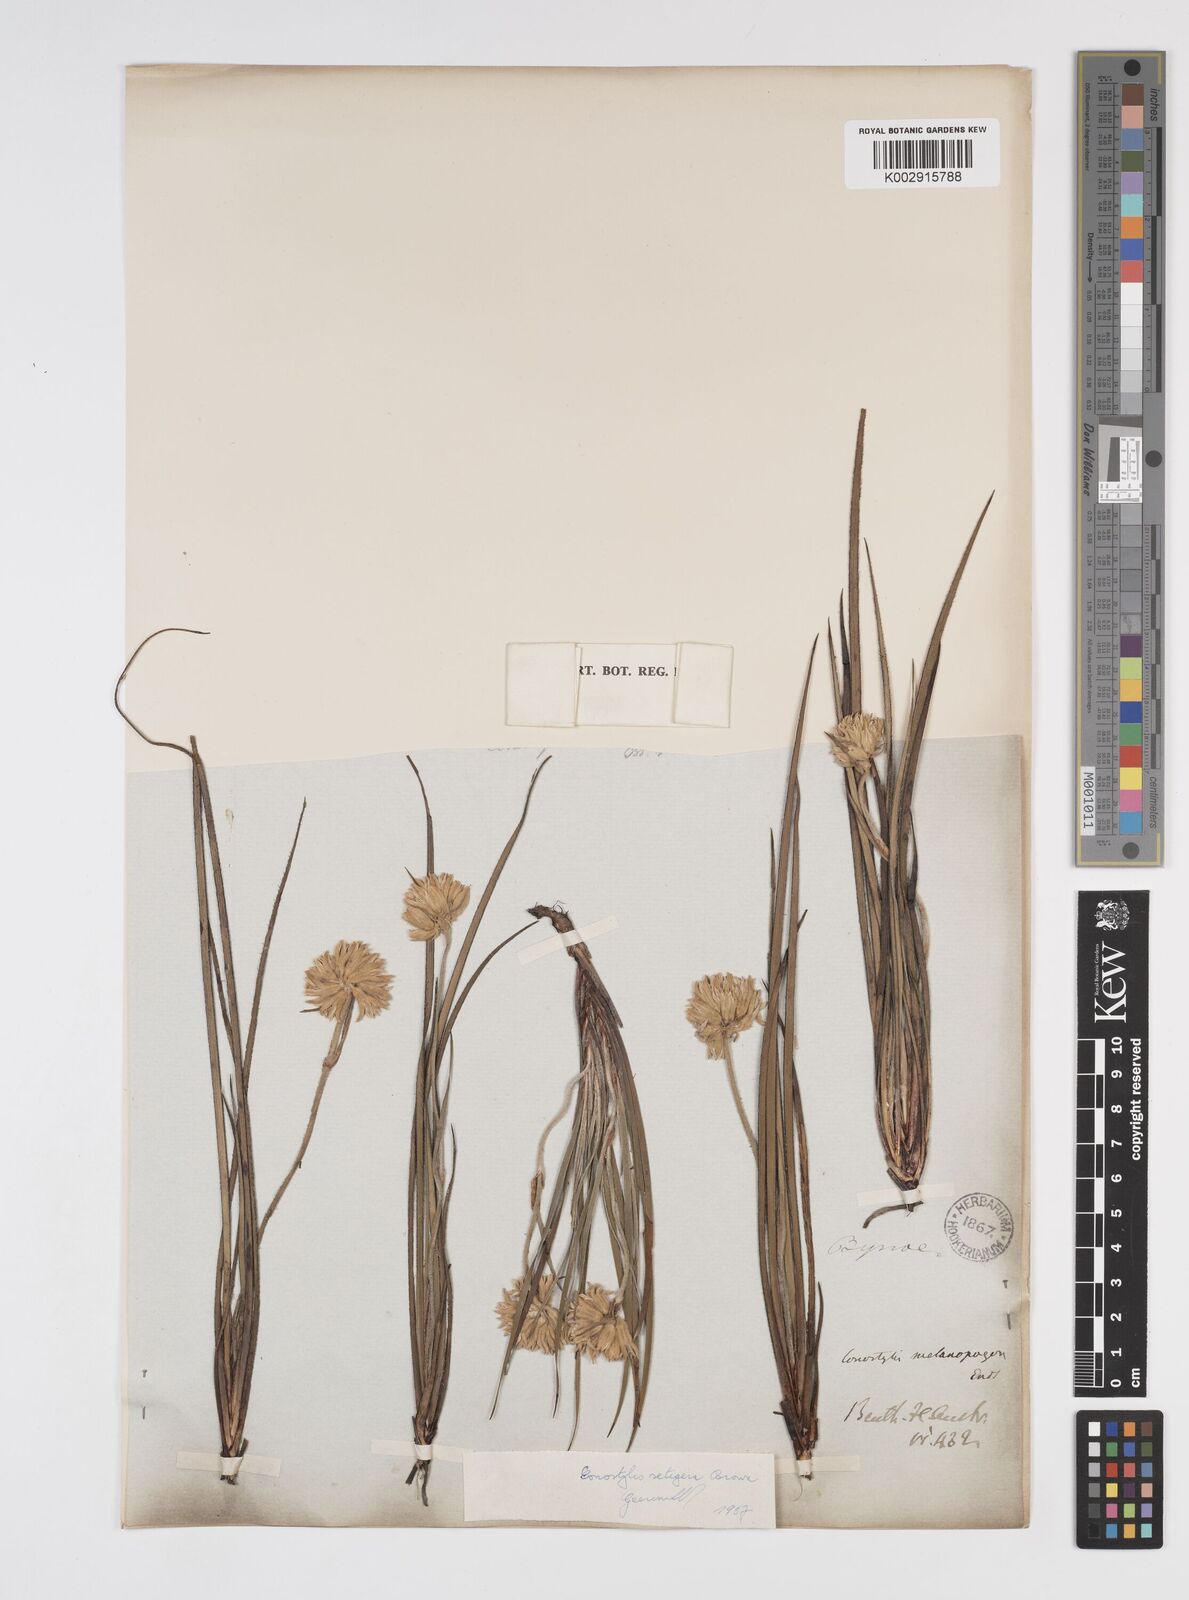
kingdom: Plantae
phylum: Tracheophyta
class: Liliopsida
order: Commelinales
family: Haemodoraceae
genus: Conostylis
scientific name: Conostylis setigera
